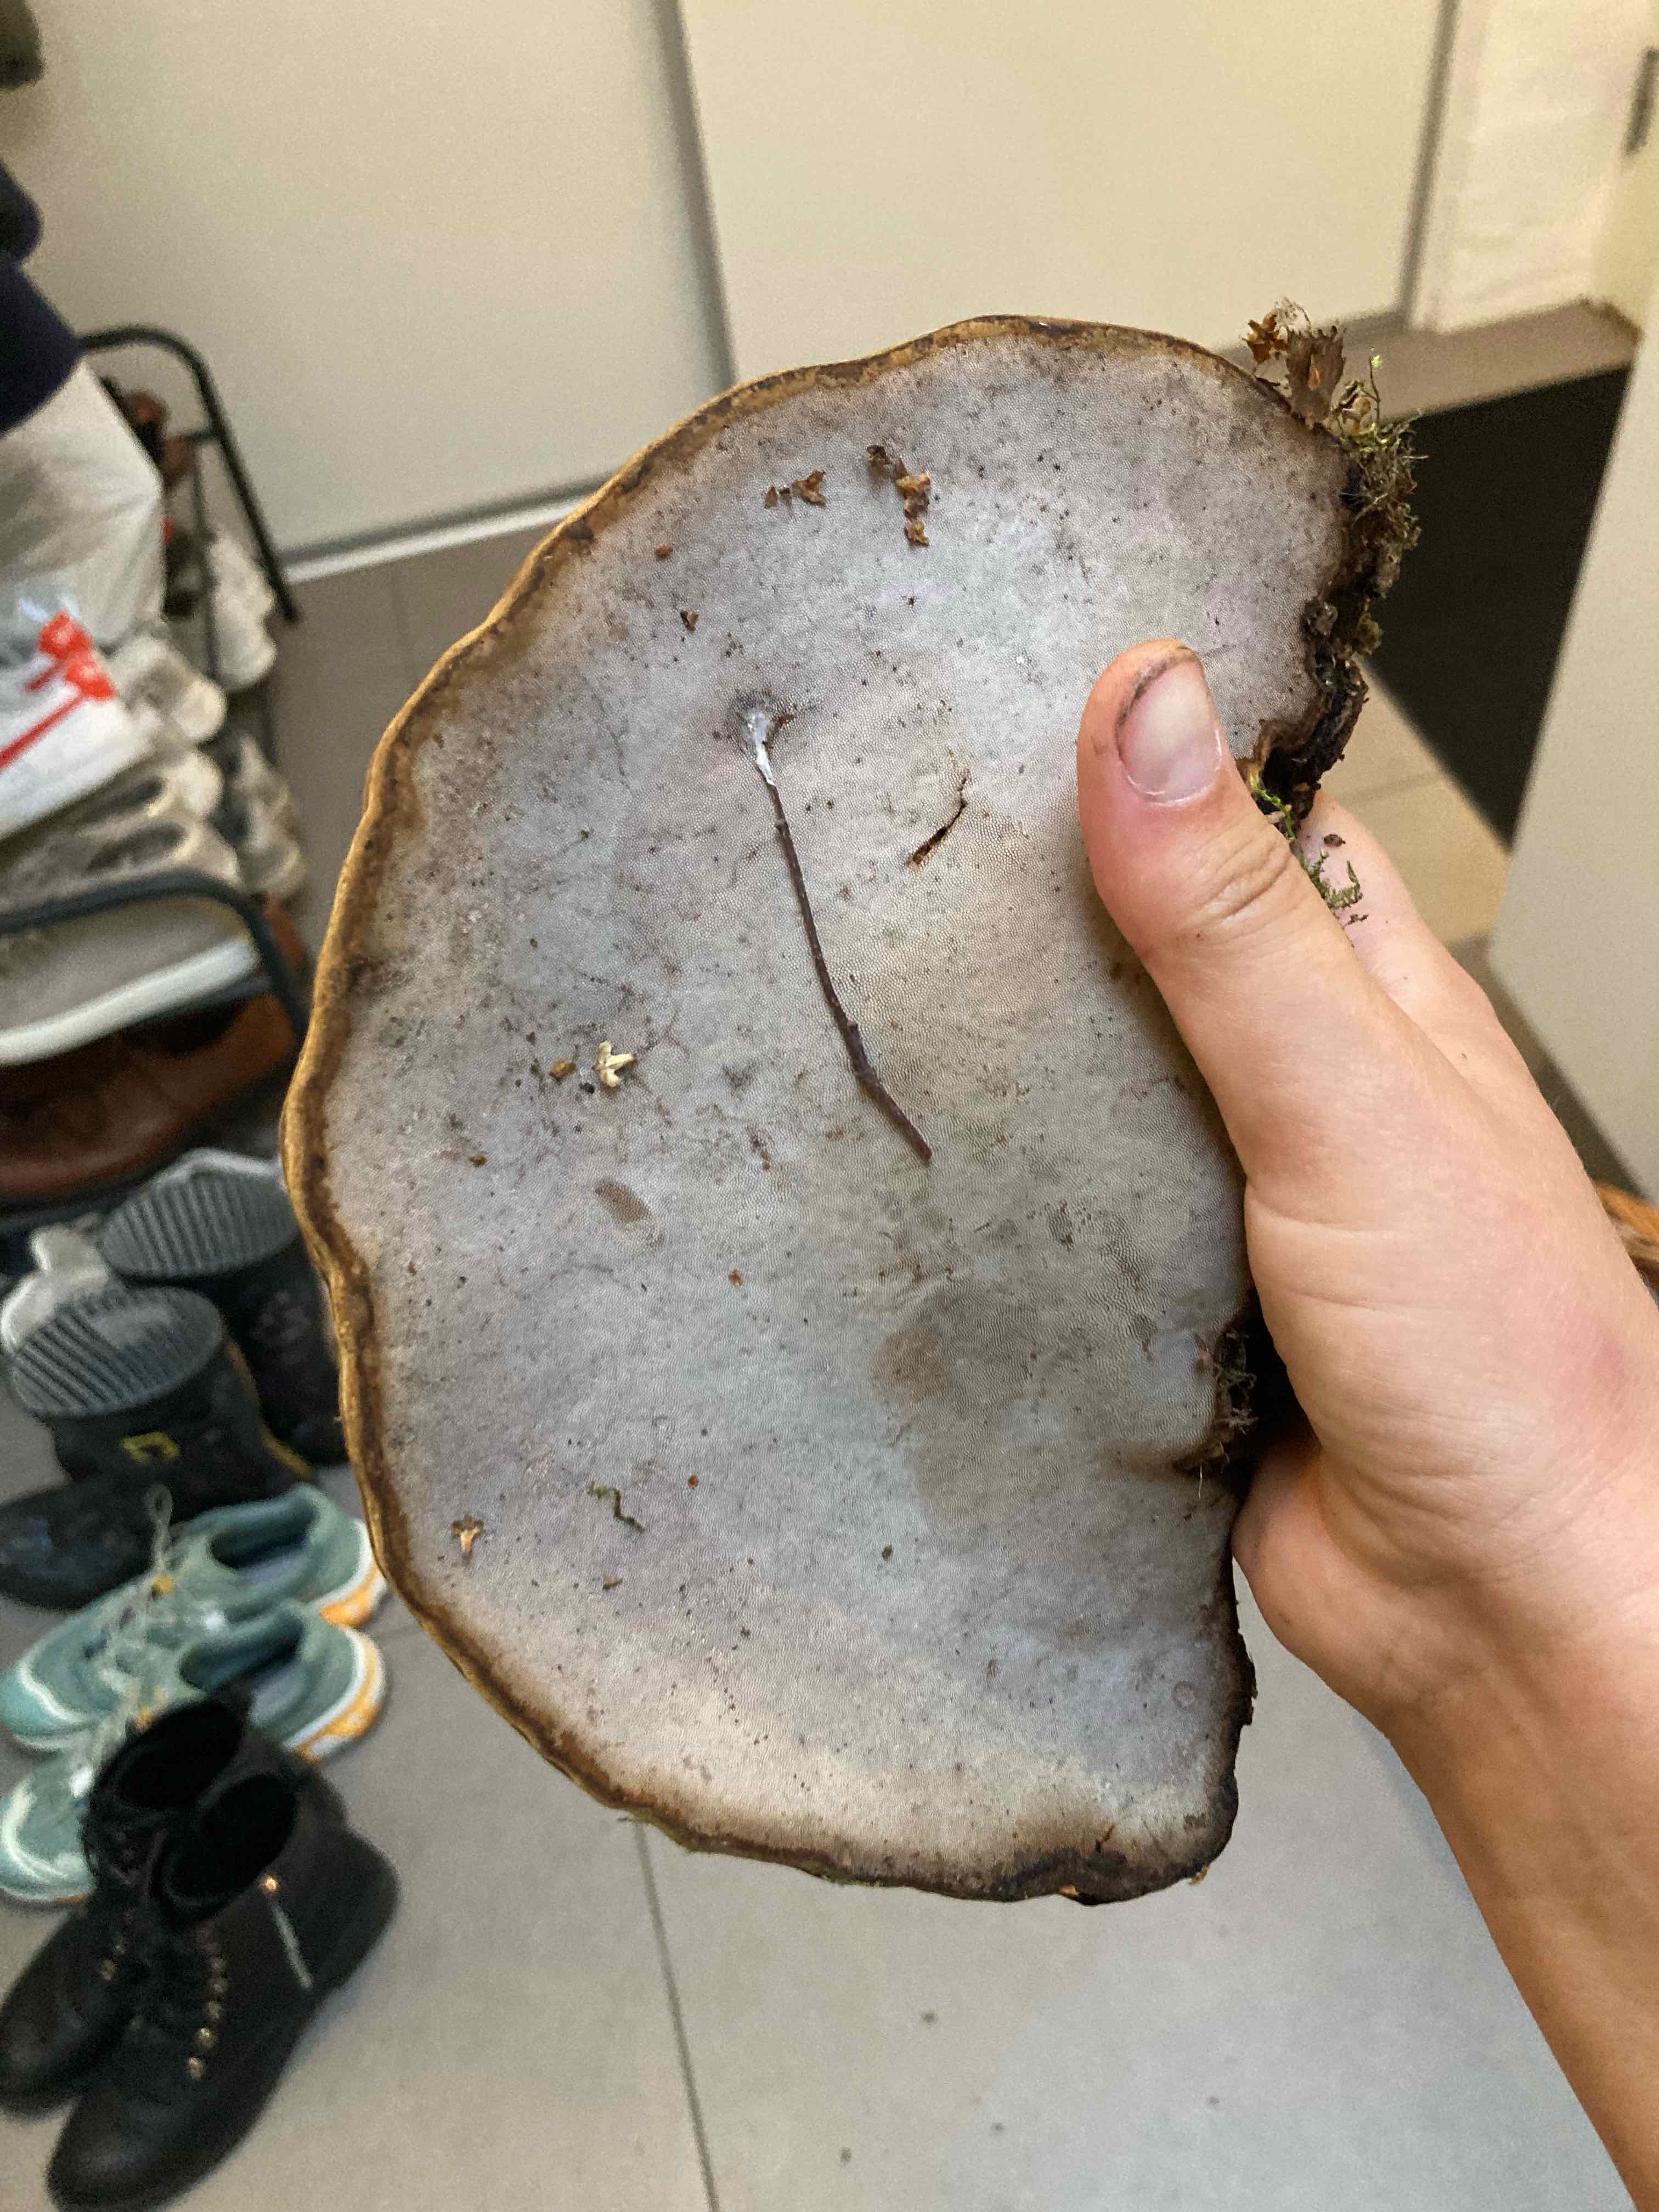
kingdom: Fungi
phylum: Basidiomycota
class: Agaricomycetes
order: Polyporales
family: Polyporaceae
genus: Fomes
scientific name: Fomes fomentarius
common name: tøndersvamp
